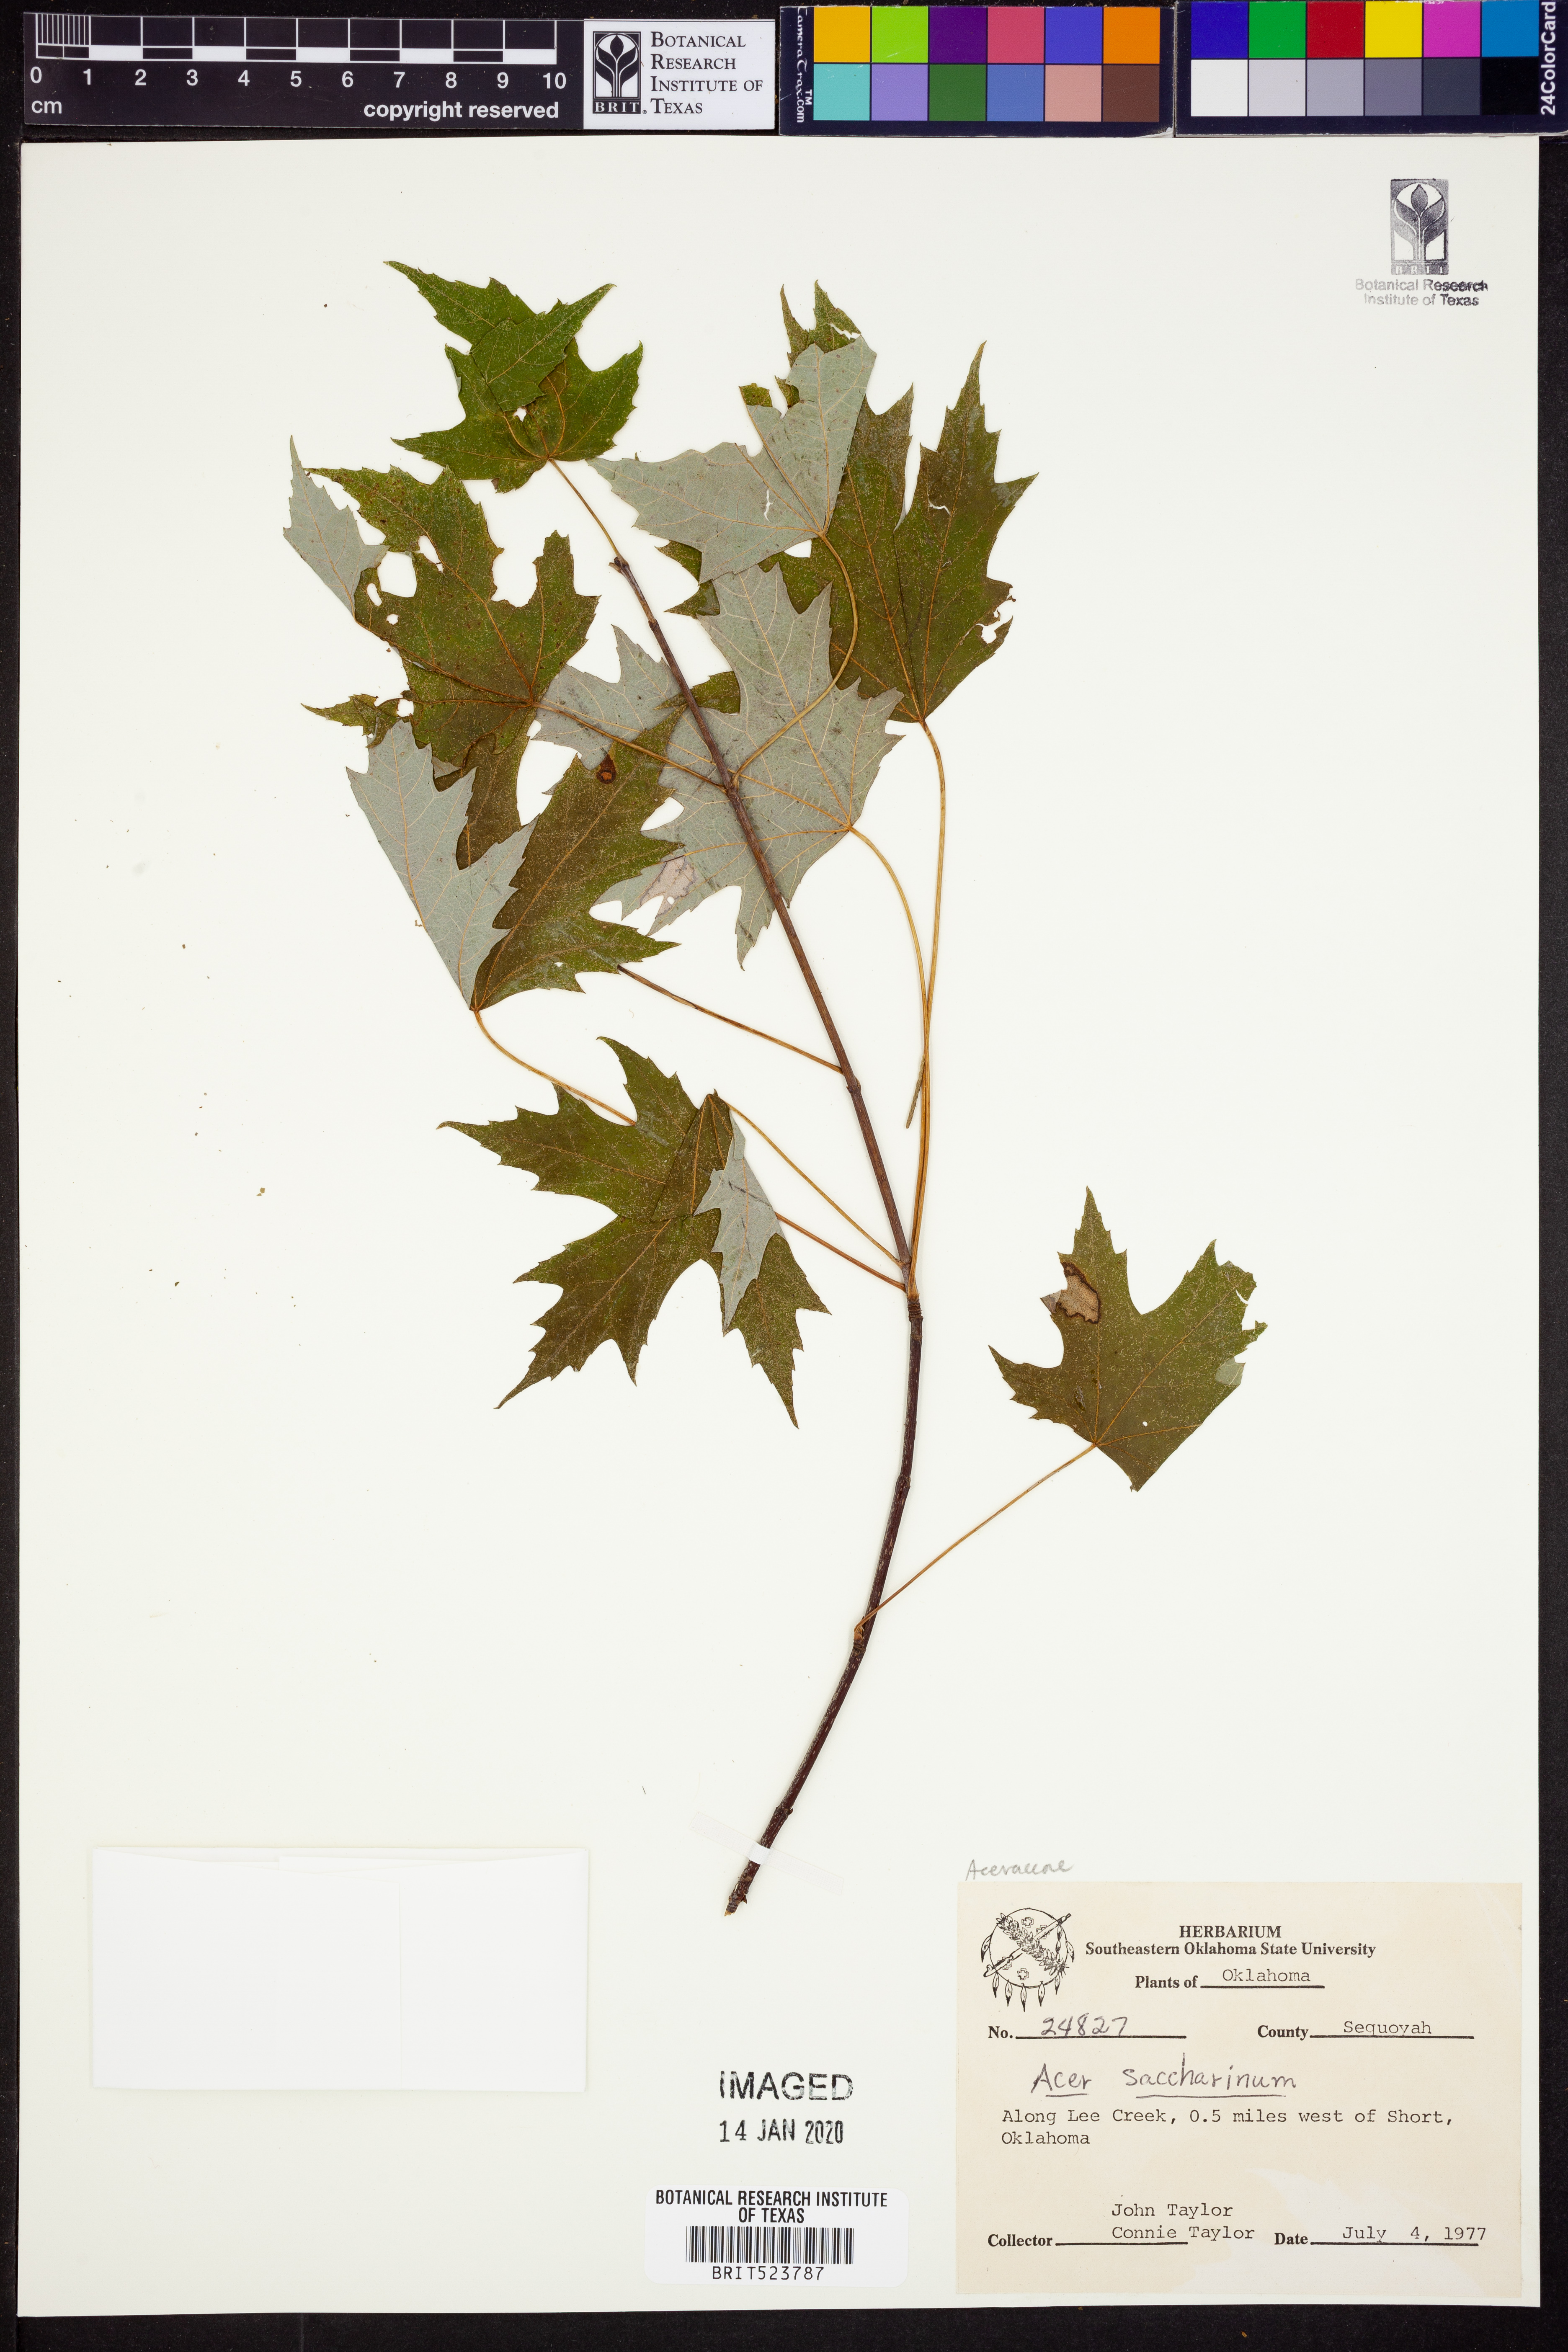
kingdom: Plantae
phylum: Tracheophyta
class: Magnoliopsida
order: Sapindales
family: Sapindaceae
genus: Acer
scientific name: Acer saccharinum
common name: Silver maple
